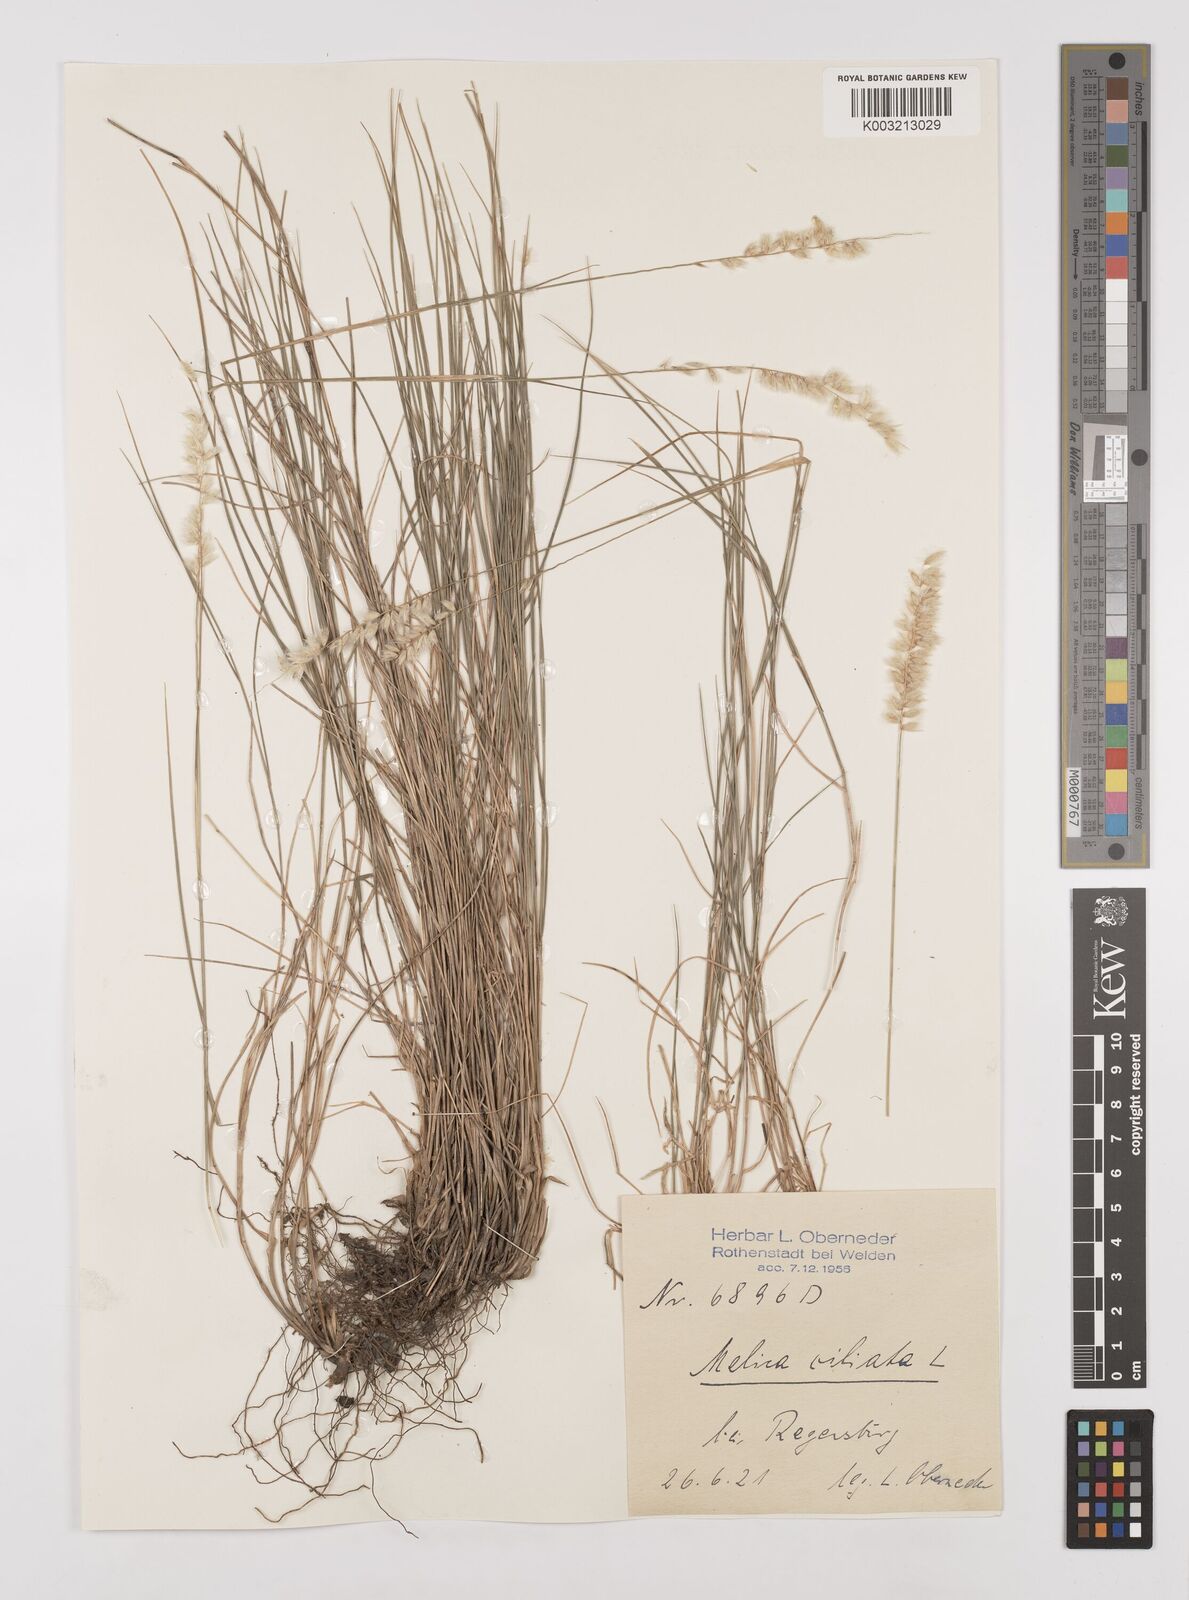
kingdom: Plantae
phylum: Tracheophyta
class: Liliopsida
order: Poales
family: Poaceae
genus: Melica
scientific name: Melica ciliata
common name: Hairy melicgrass
